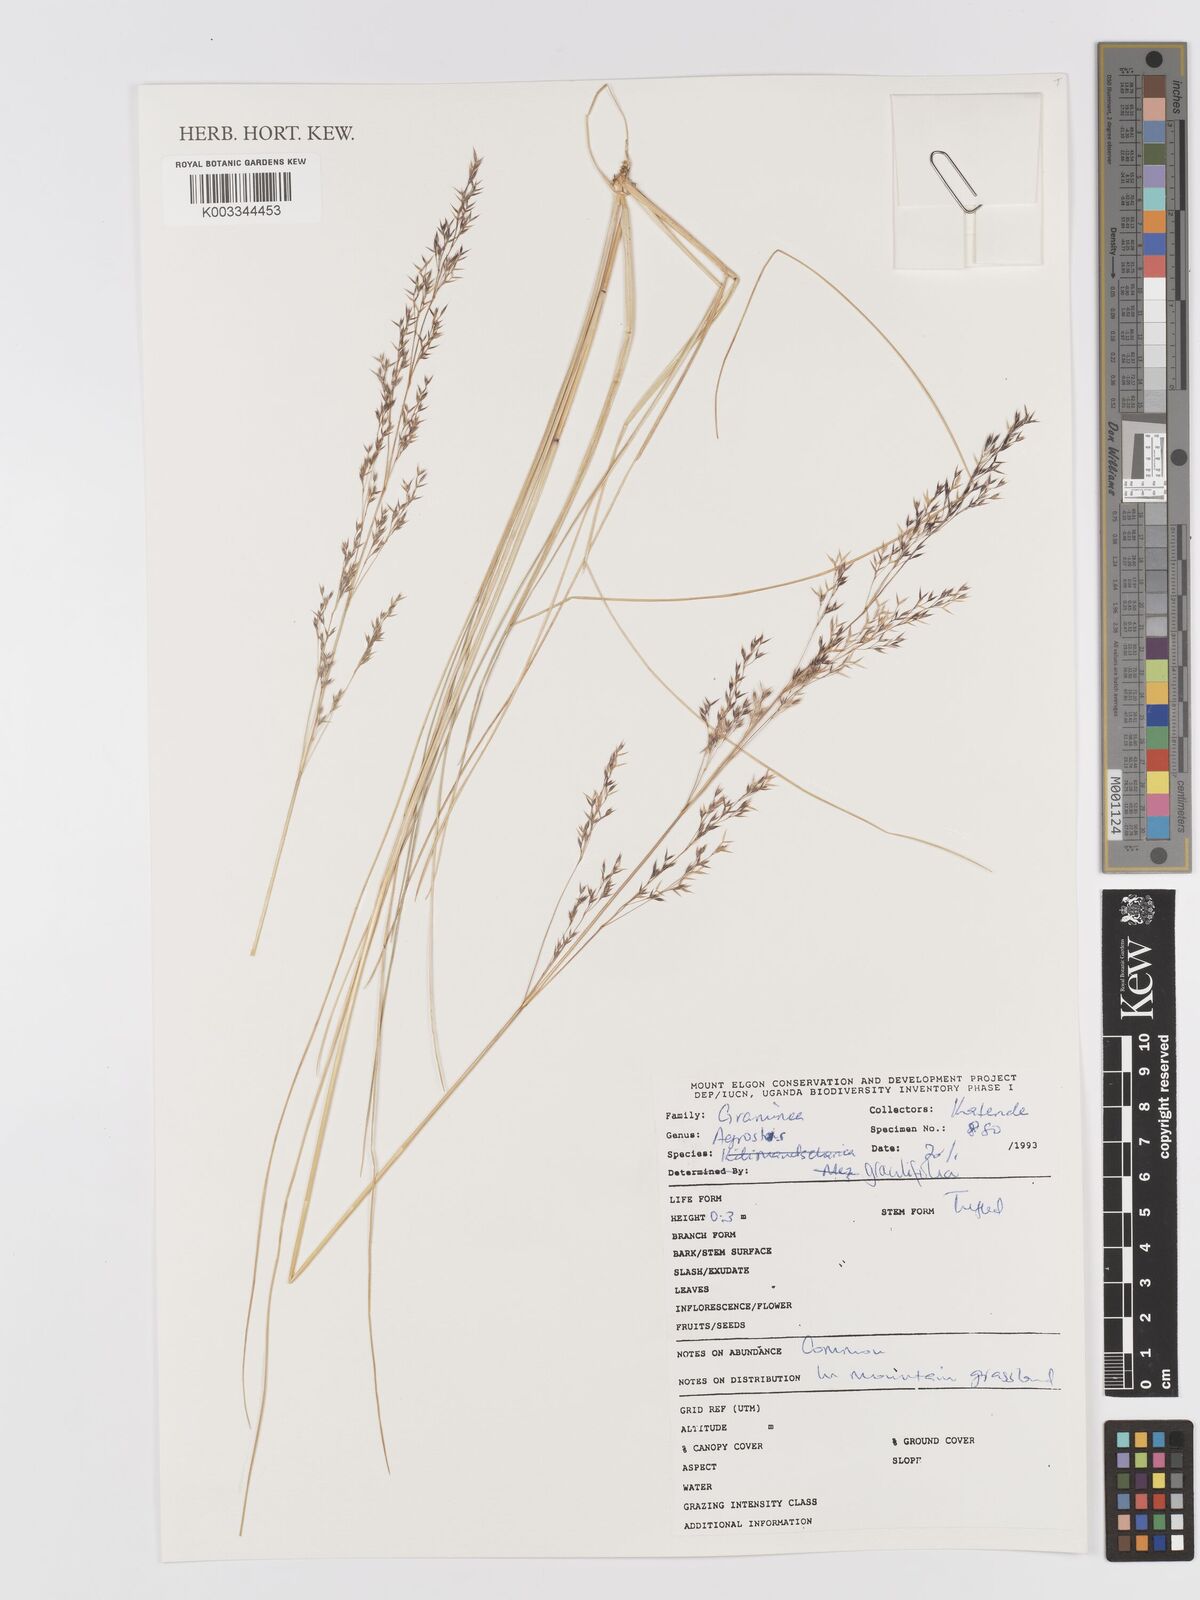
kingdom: Plantae
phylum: Tracheophyta
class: Liliopsida
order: Poales
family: Poaceae
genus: Agrostis
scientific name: Agrostis gracilifolia
